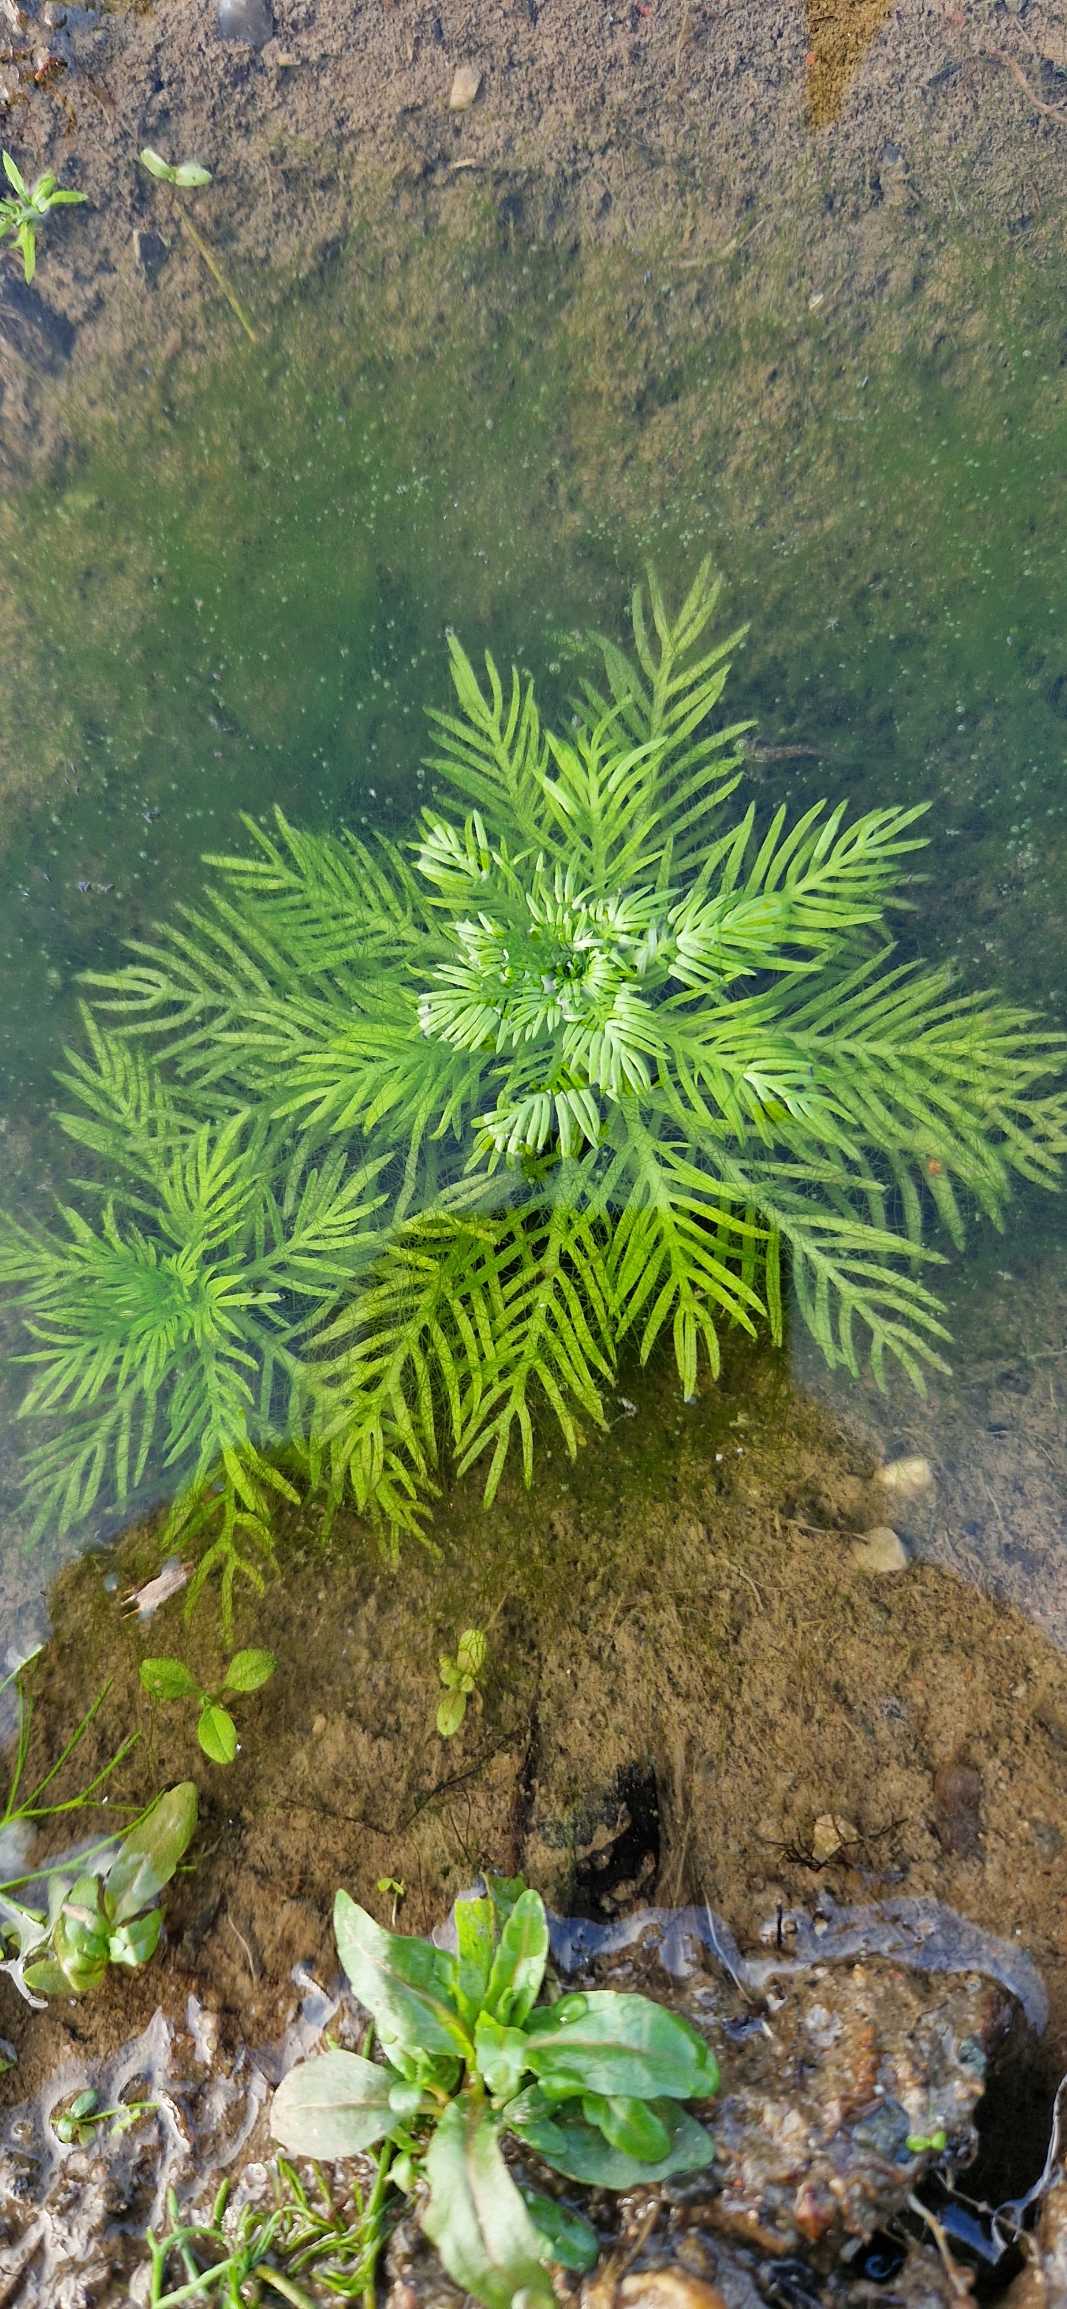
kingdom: Plantae
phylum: Tracheophyta
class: Magnoliopsida
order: Ericales
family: Primulaceae
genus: Hottonia
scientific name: Hottonia palustris
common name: Vandrøllike
